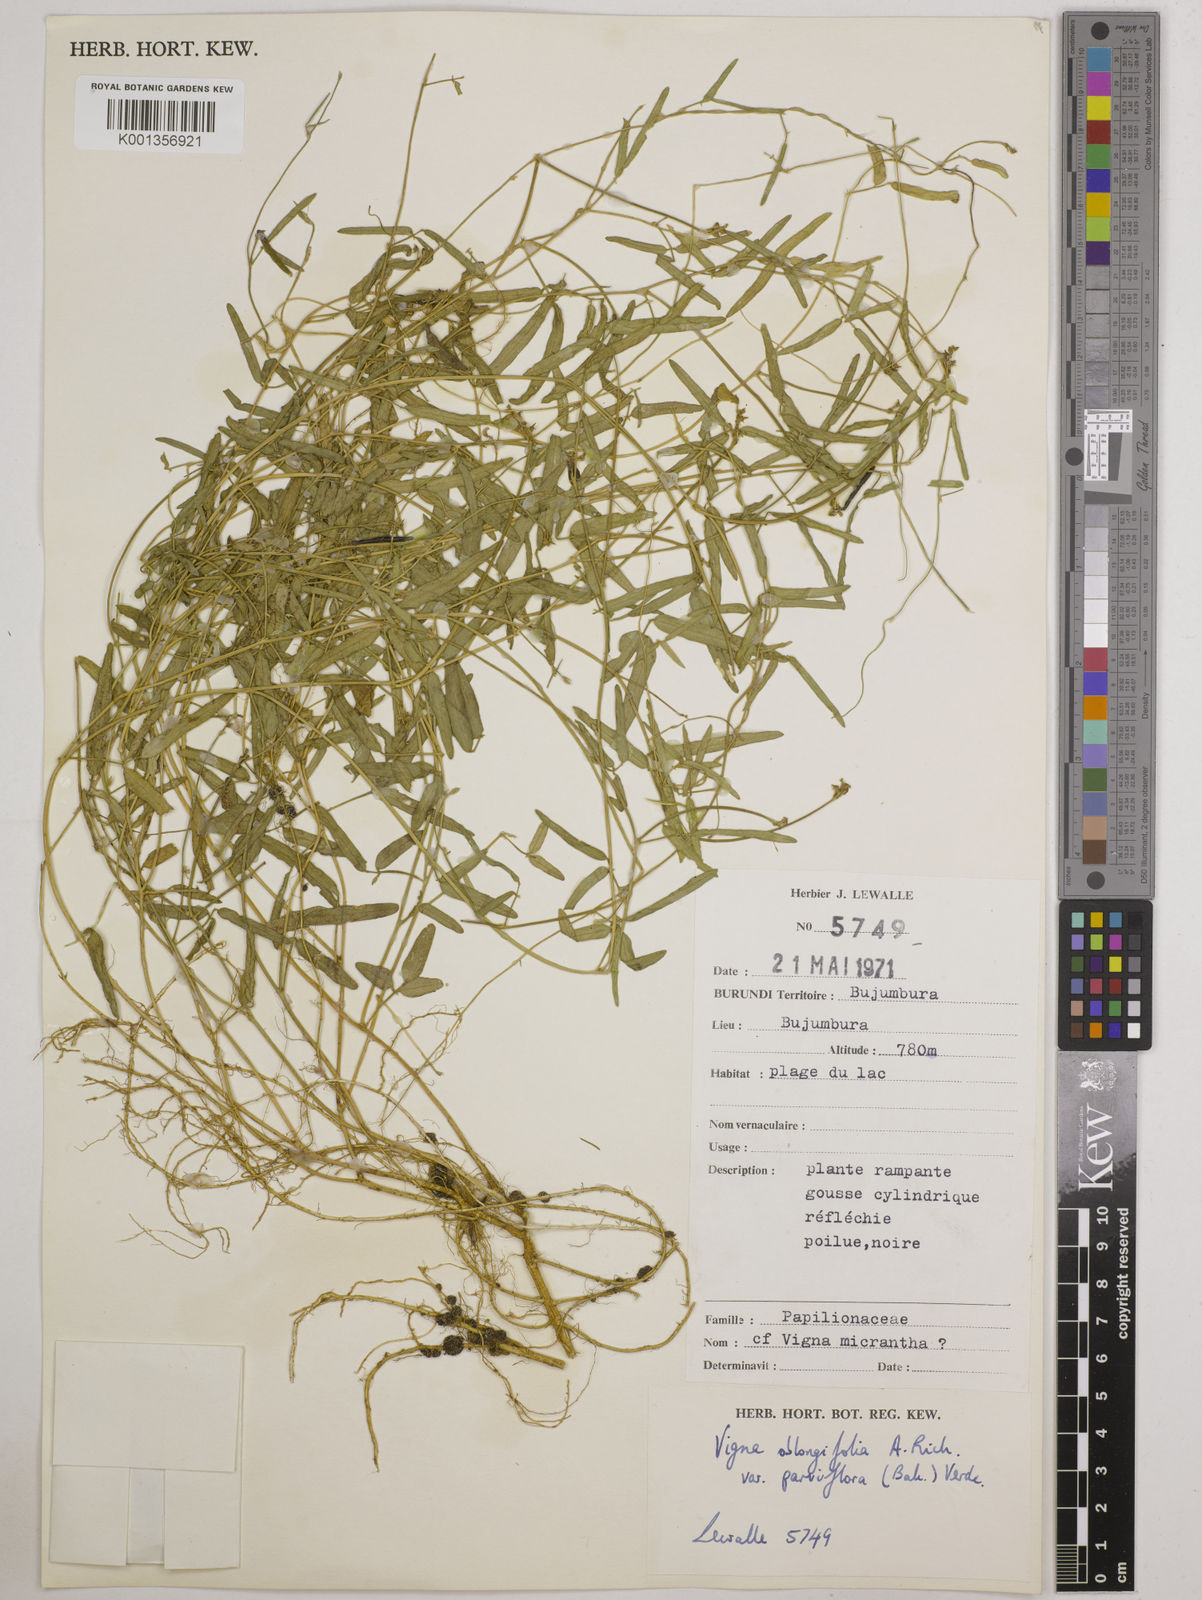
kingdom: Plantae
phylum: Tracheophyta
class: Magnoliopsida
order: Fabales
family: Fabaceae
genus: Vigna
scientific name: Vigna
